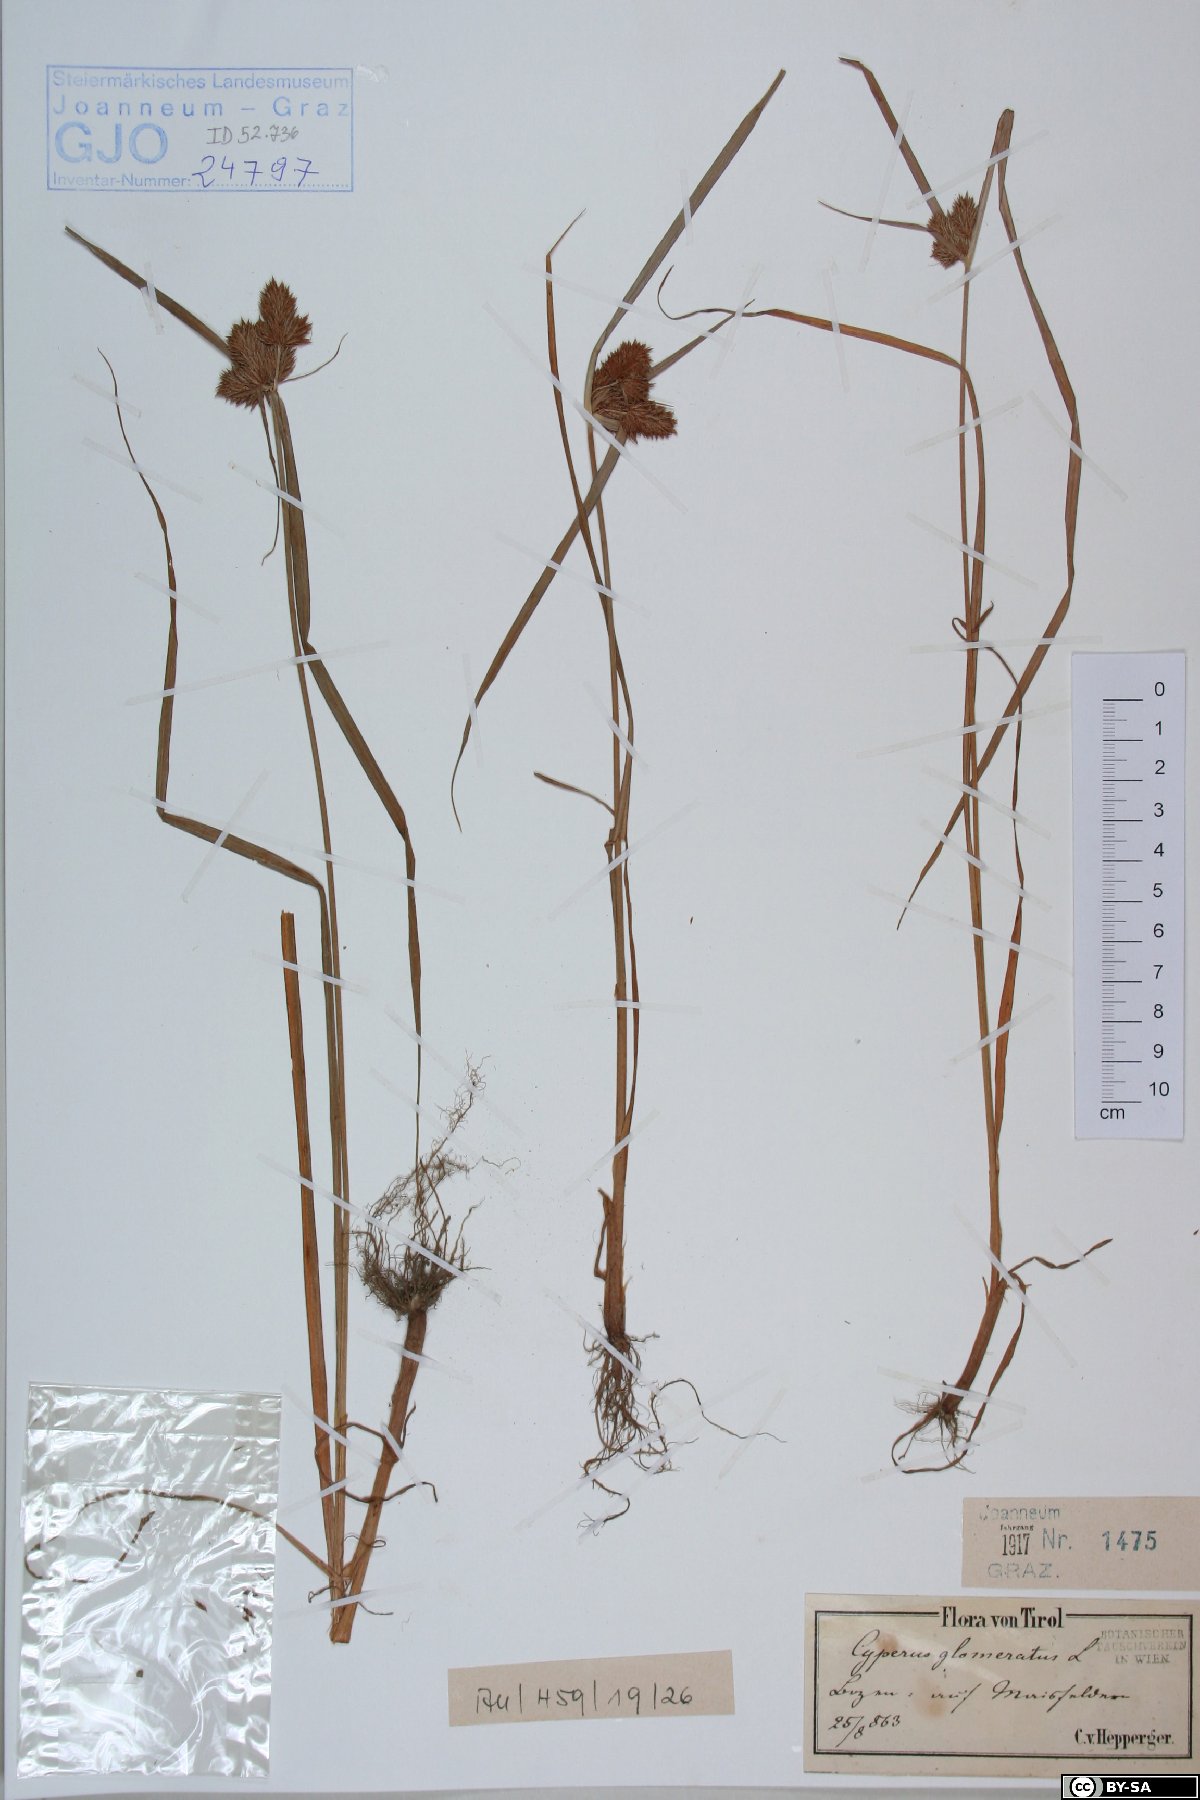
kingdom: Plantae
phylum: Tracheophyta
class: Liliopsida
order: Poales
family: Cyperaceae
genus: Cyperus
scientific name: Cyperus glomeratus
